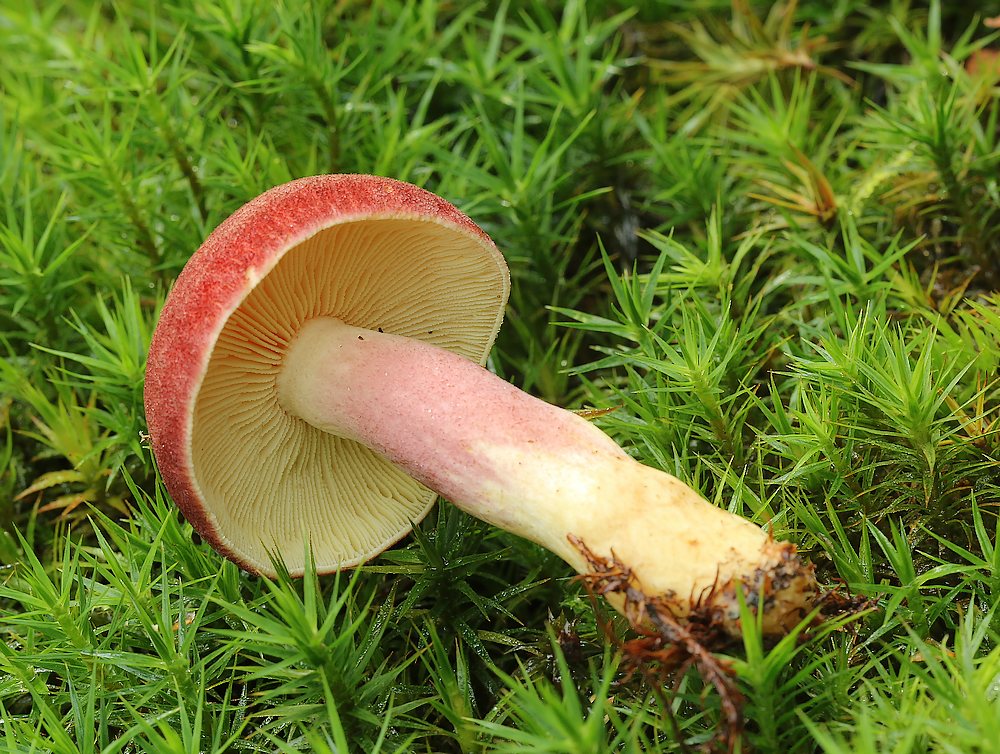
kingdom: Fungi
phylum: Basidiomycota
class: Agaricomycetes
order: Agaricales
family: Tricholomataceae
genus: Tricholomopsis
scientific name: Tricholomopsis rutilans
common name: purpur-væbnerhat
